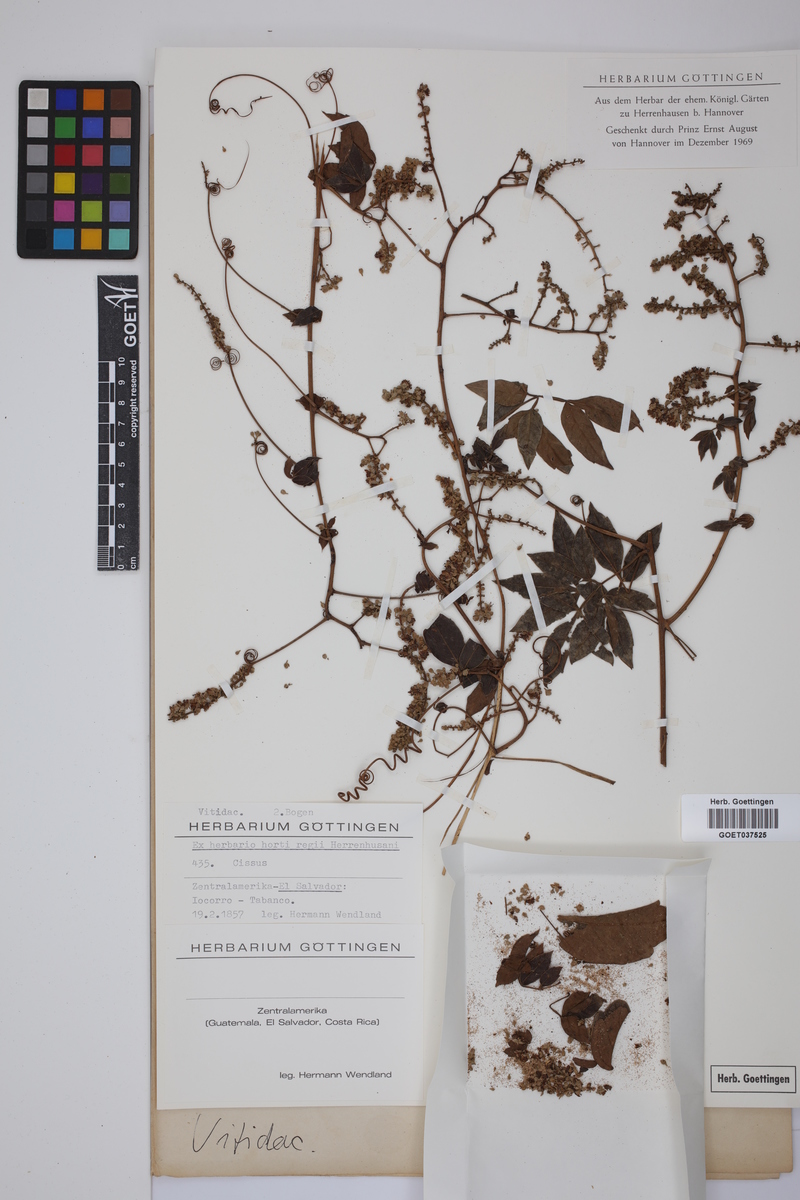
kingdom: Plantae
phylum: Tracheophyta
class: Magnoliopsida
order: Vitales
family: Vitaceae
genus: Cissus
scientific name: Cissus
